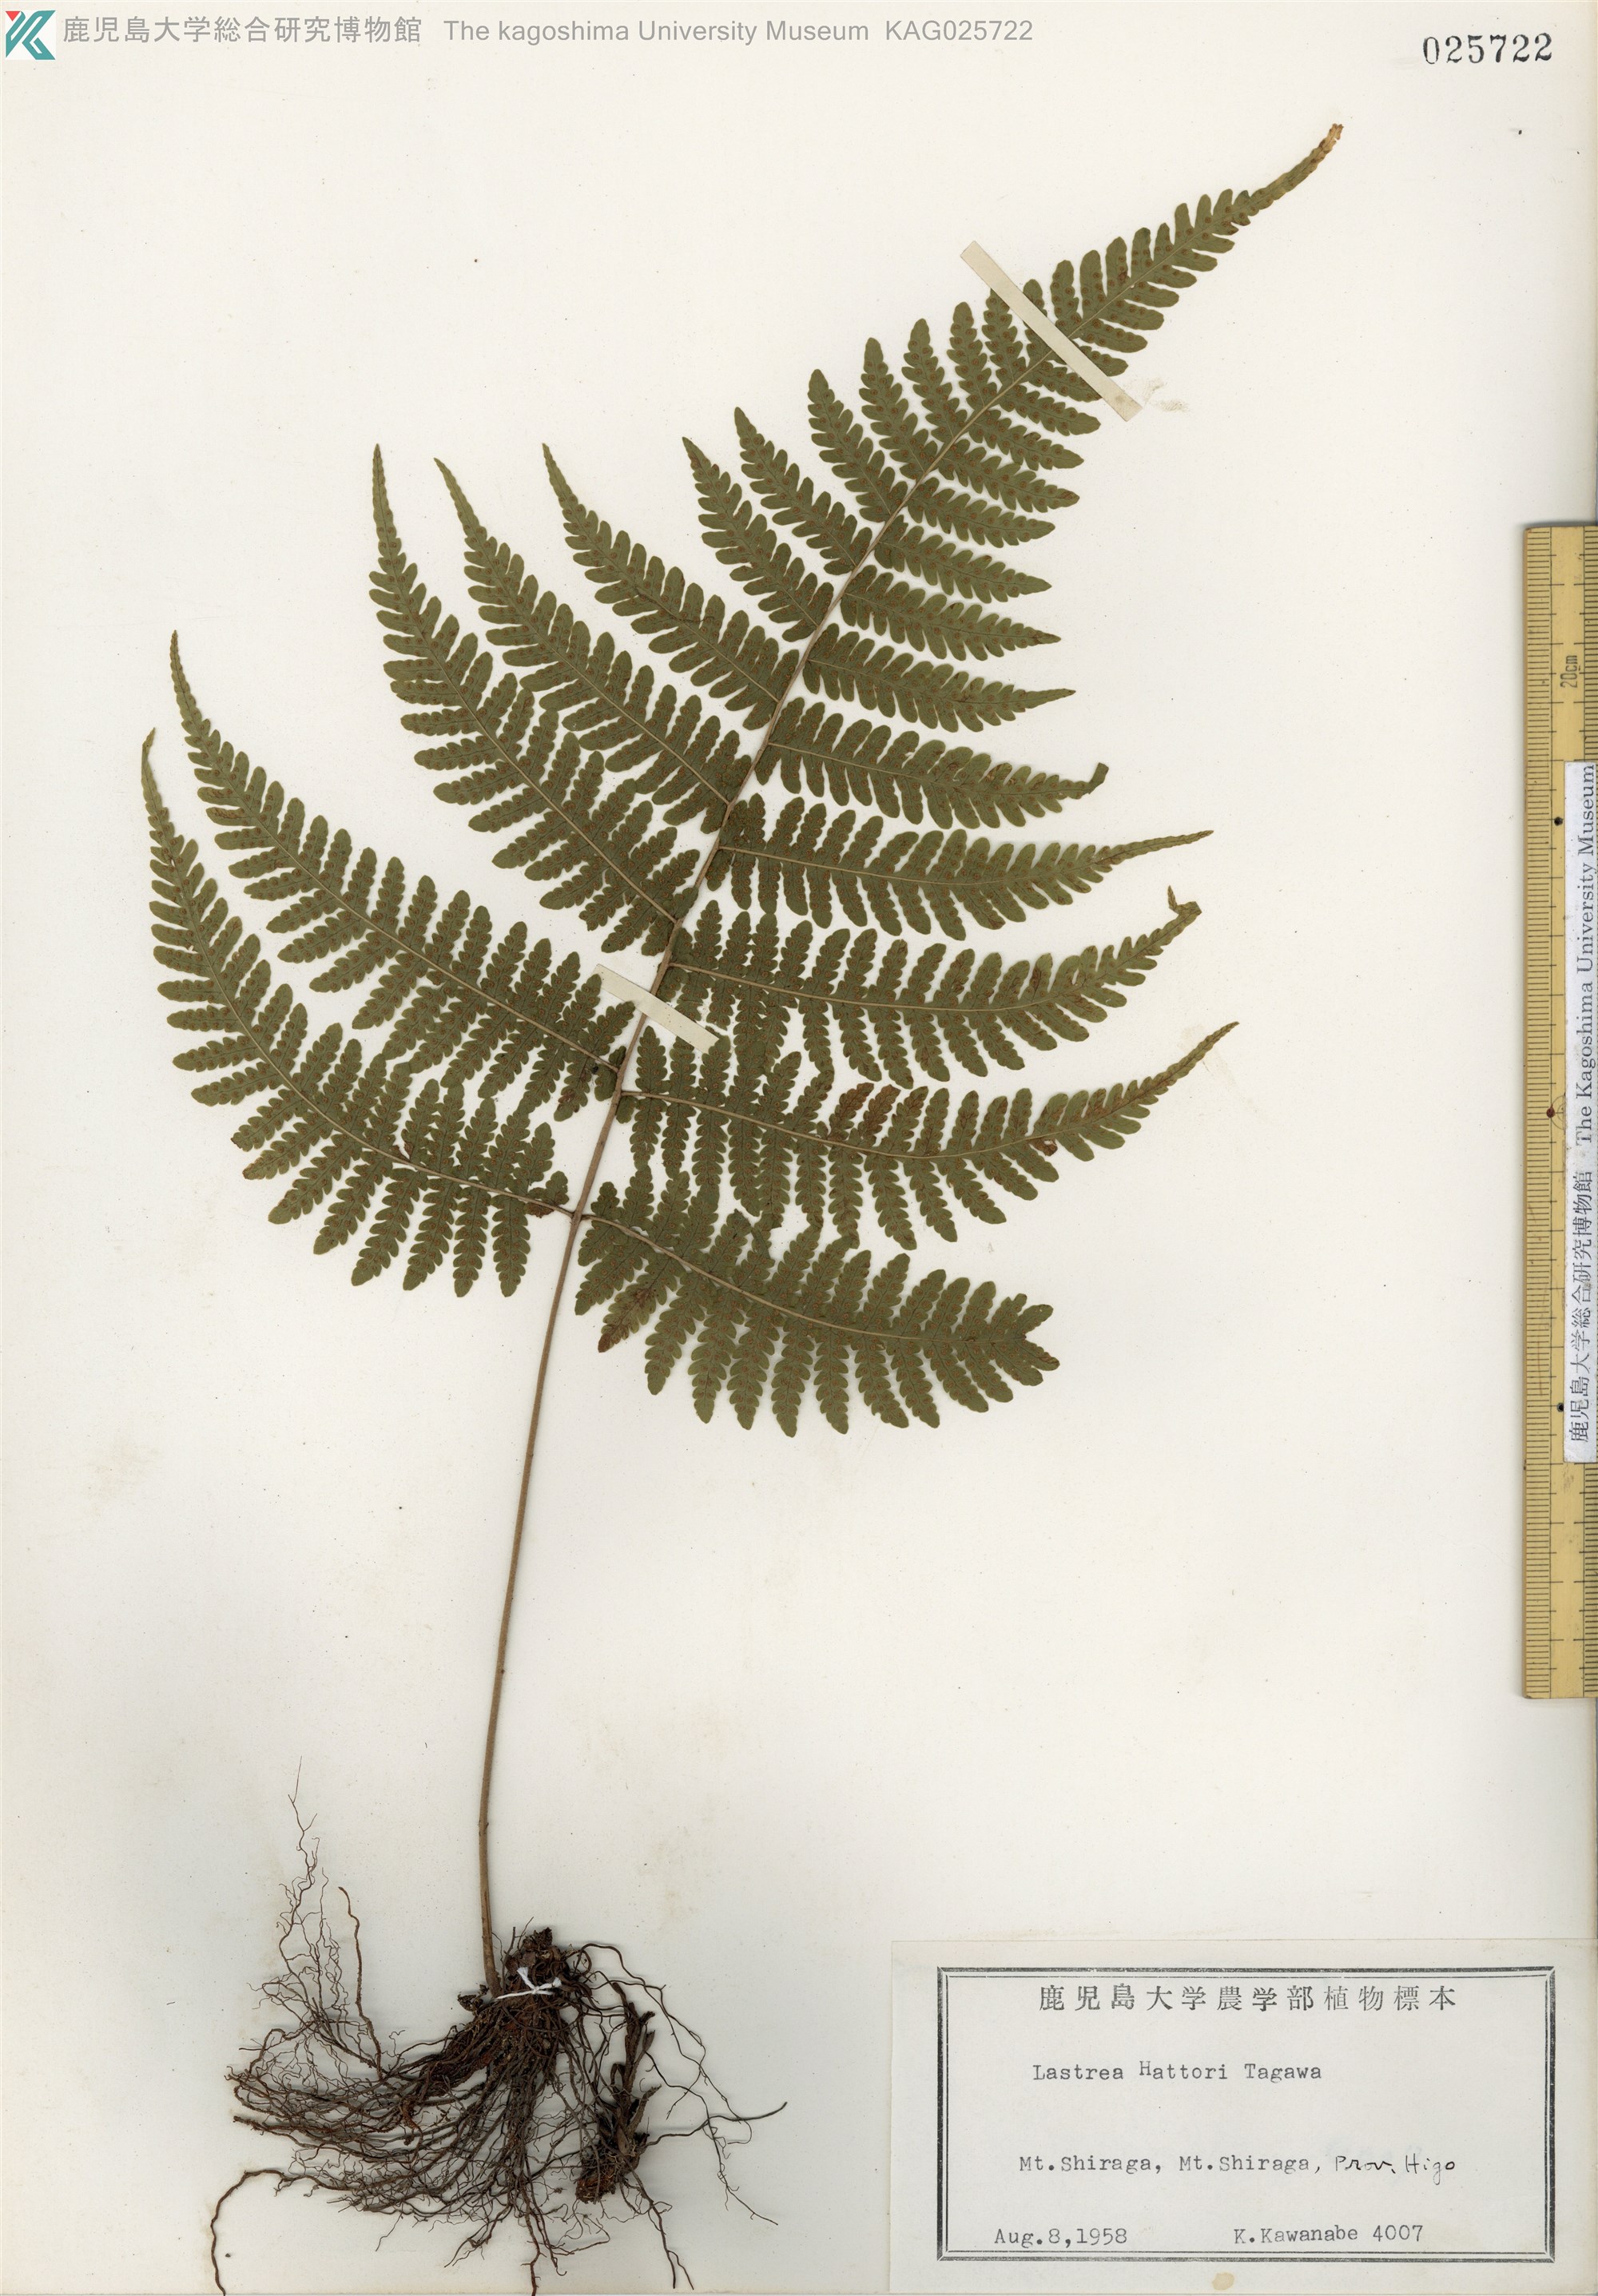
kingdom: Plantae
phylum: Tracheophyta
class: Polypodiopsida
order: Polypodiales
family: Thelypteridaceae
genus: Metathelypteris
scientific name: Metathelypteris hattori
